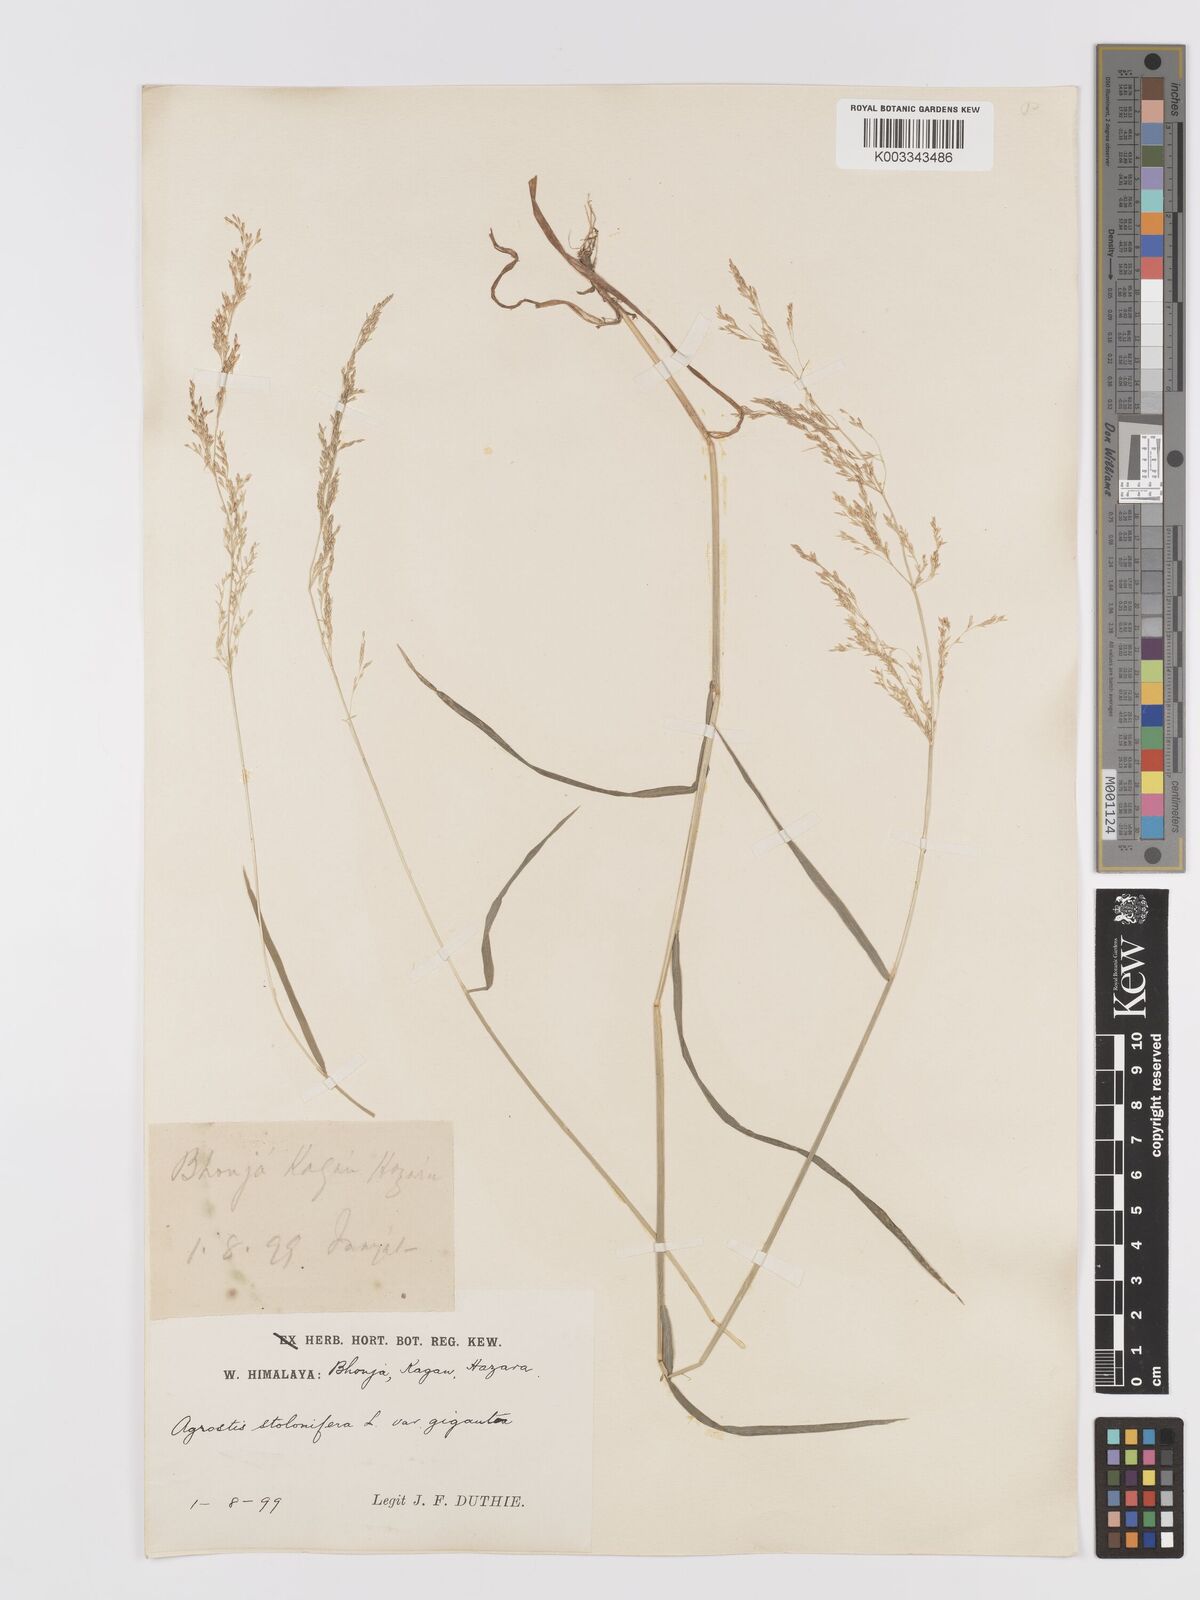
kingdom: Plantae
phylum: Tracheophyta
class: Liliopsida
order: Poales
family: Poaceae
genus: Agrostis
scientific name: Agrostis gigantea
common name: Black bent
